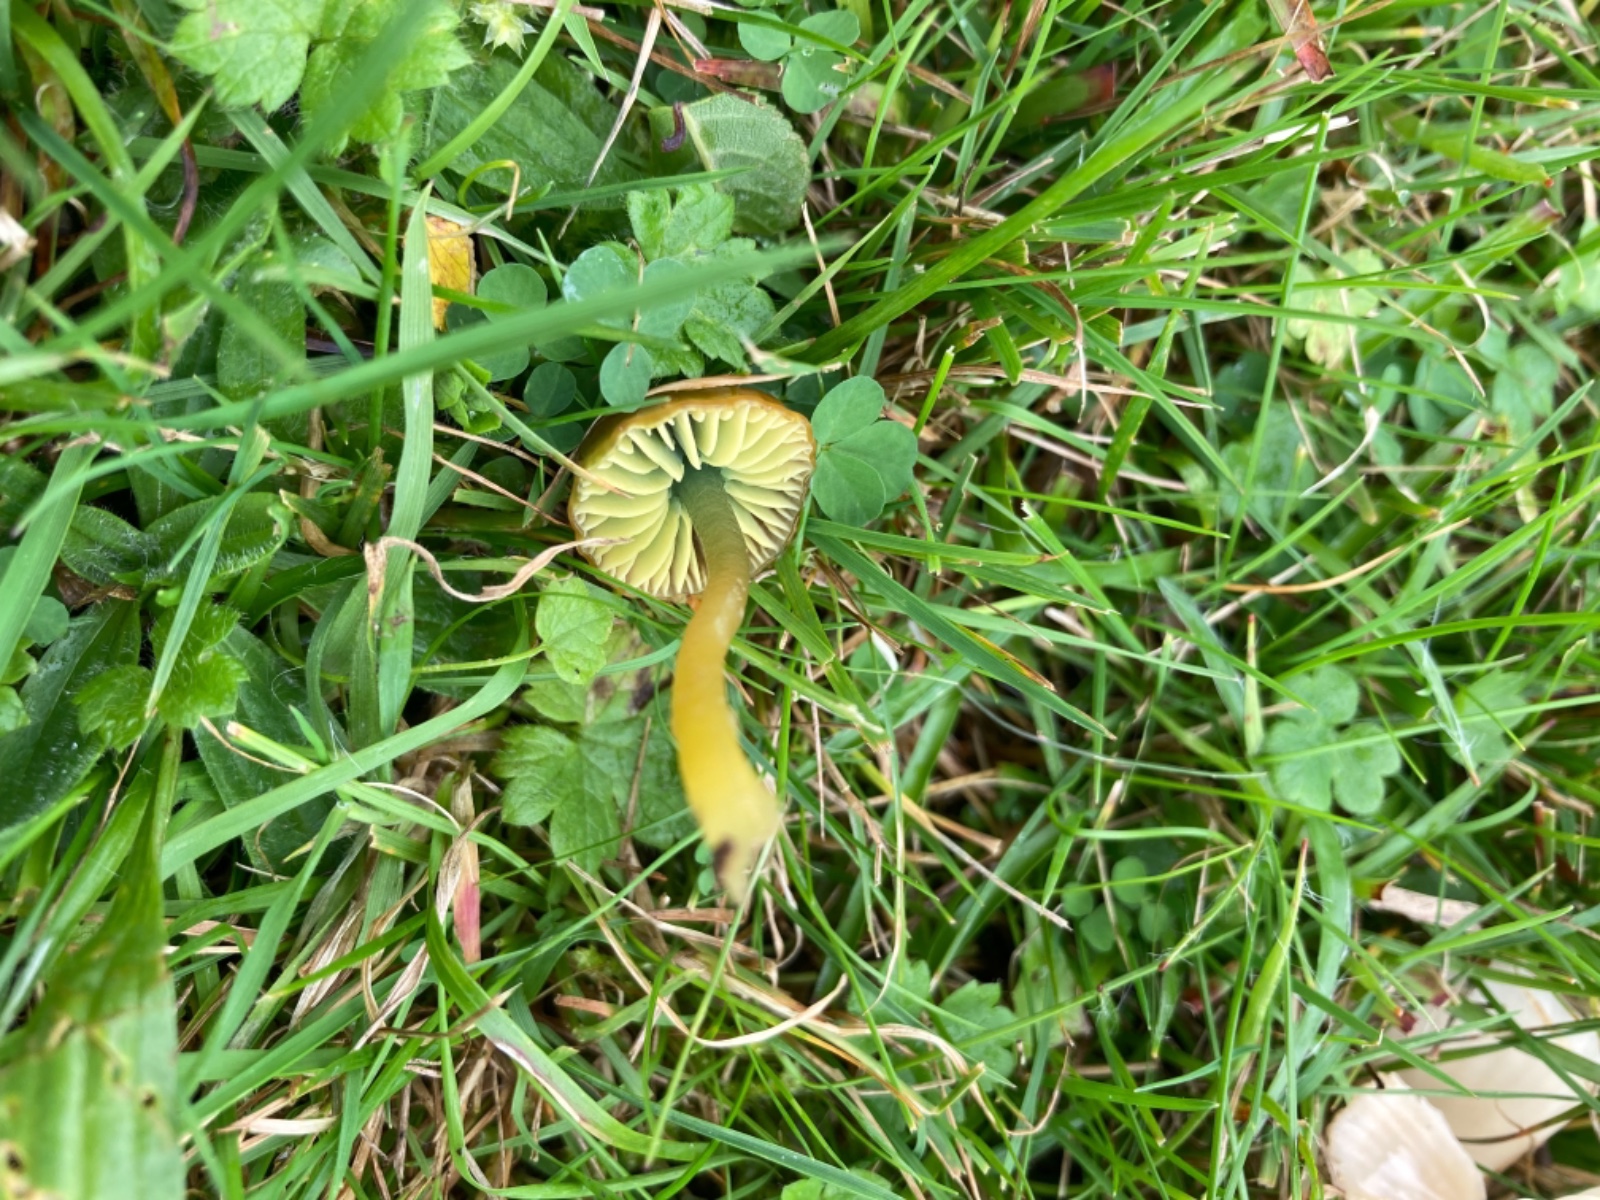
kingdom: Fungi
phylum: Basidiomycota
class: Agaricomycetes
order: Agaricales
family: Hygrophoraceae
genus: Gliophorus
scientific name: Gliophorus psittacinus
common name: papegøje-vokshat
